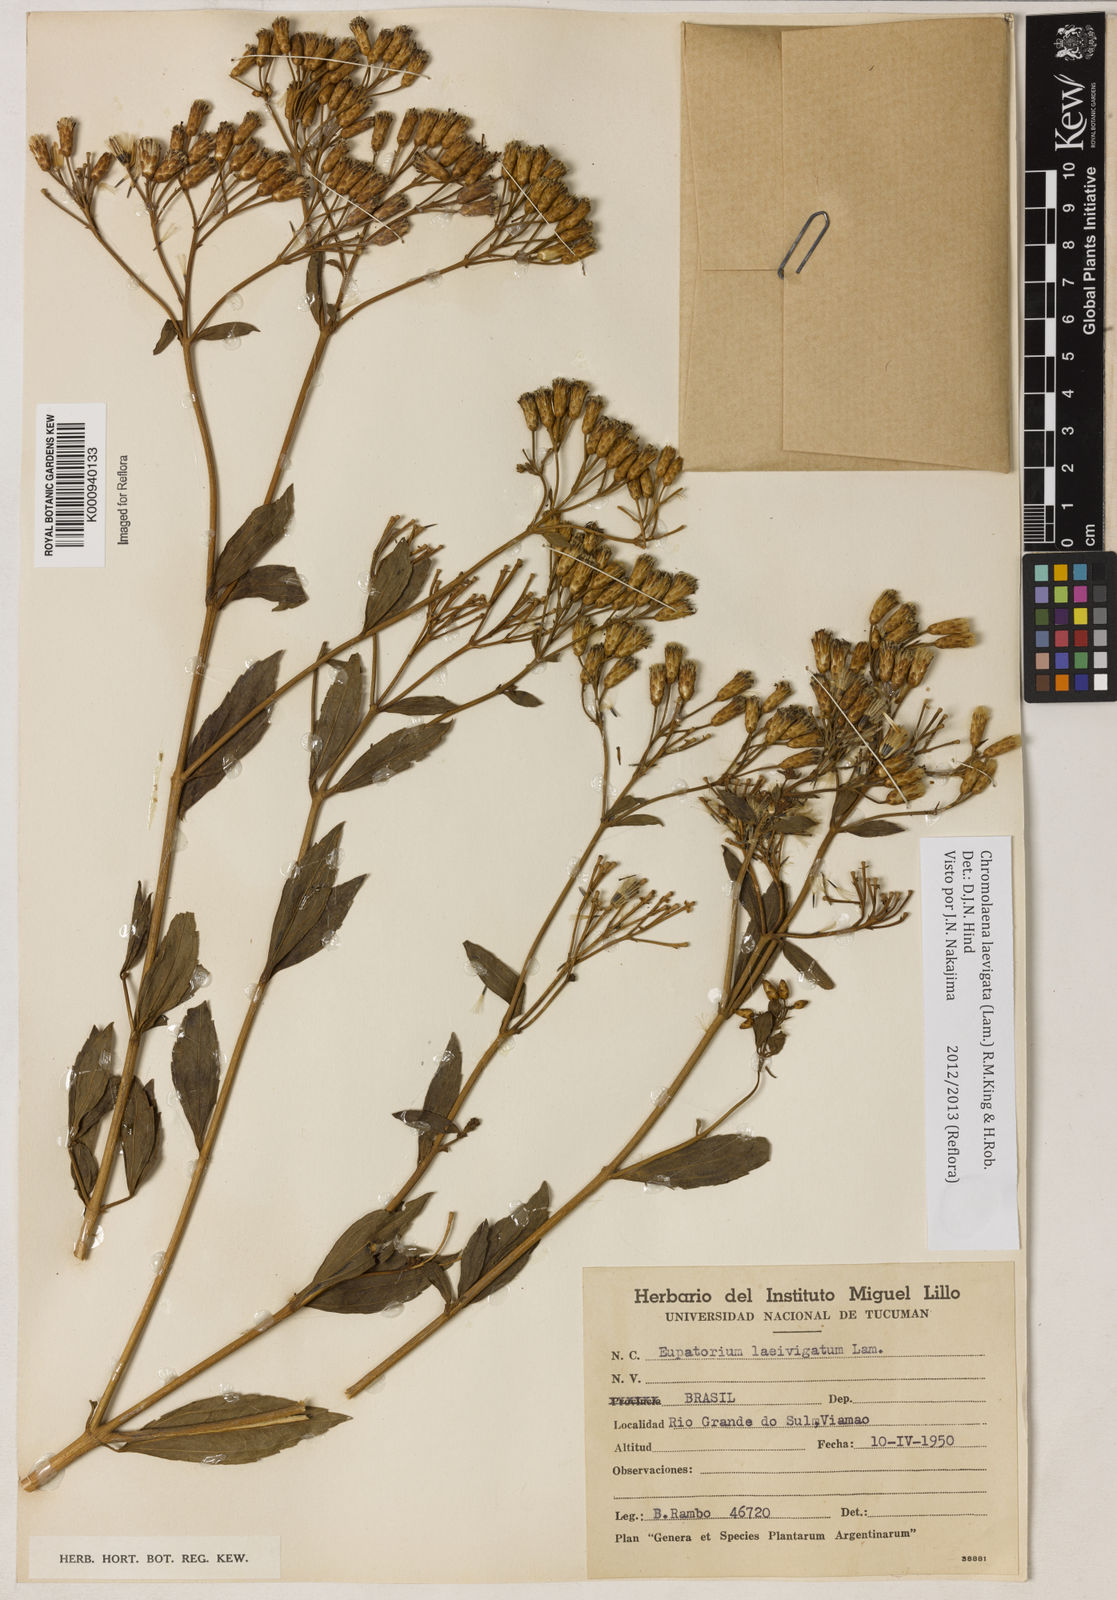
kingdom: Plantae
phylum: Tracheophyta
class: Magnoliopsida
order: Asterales
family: Asteraceae
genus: Chromolaena
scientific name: Chromolaena laevigata
